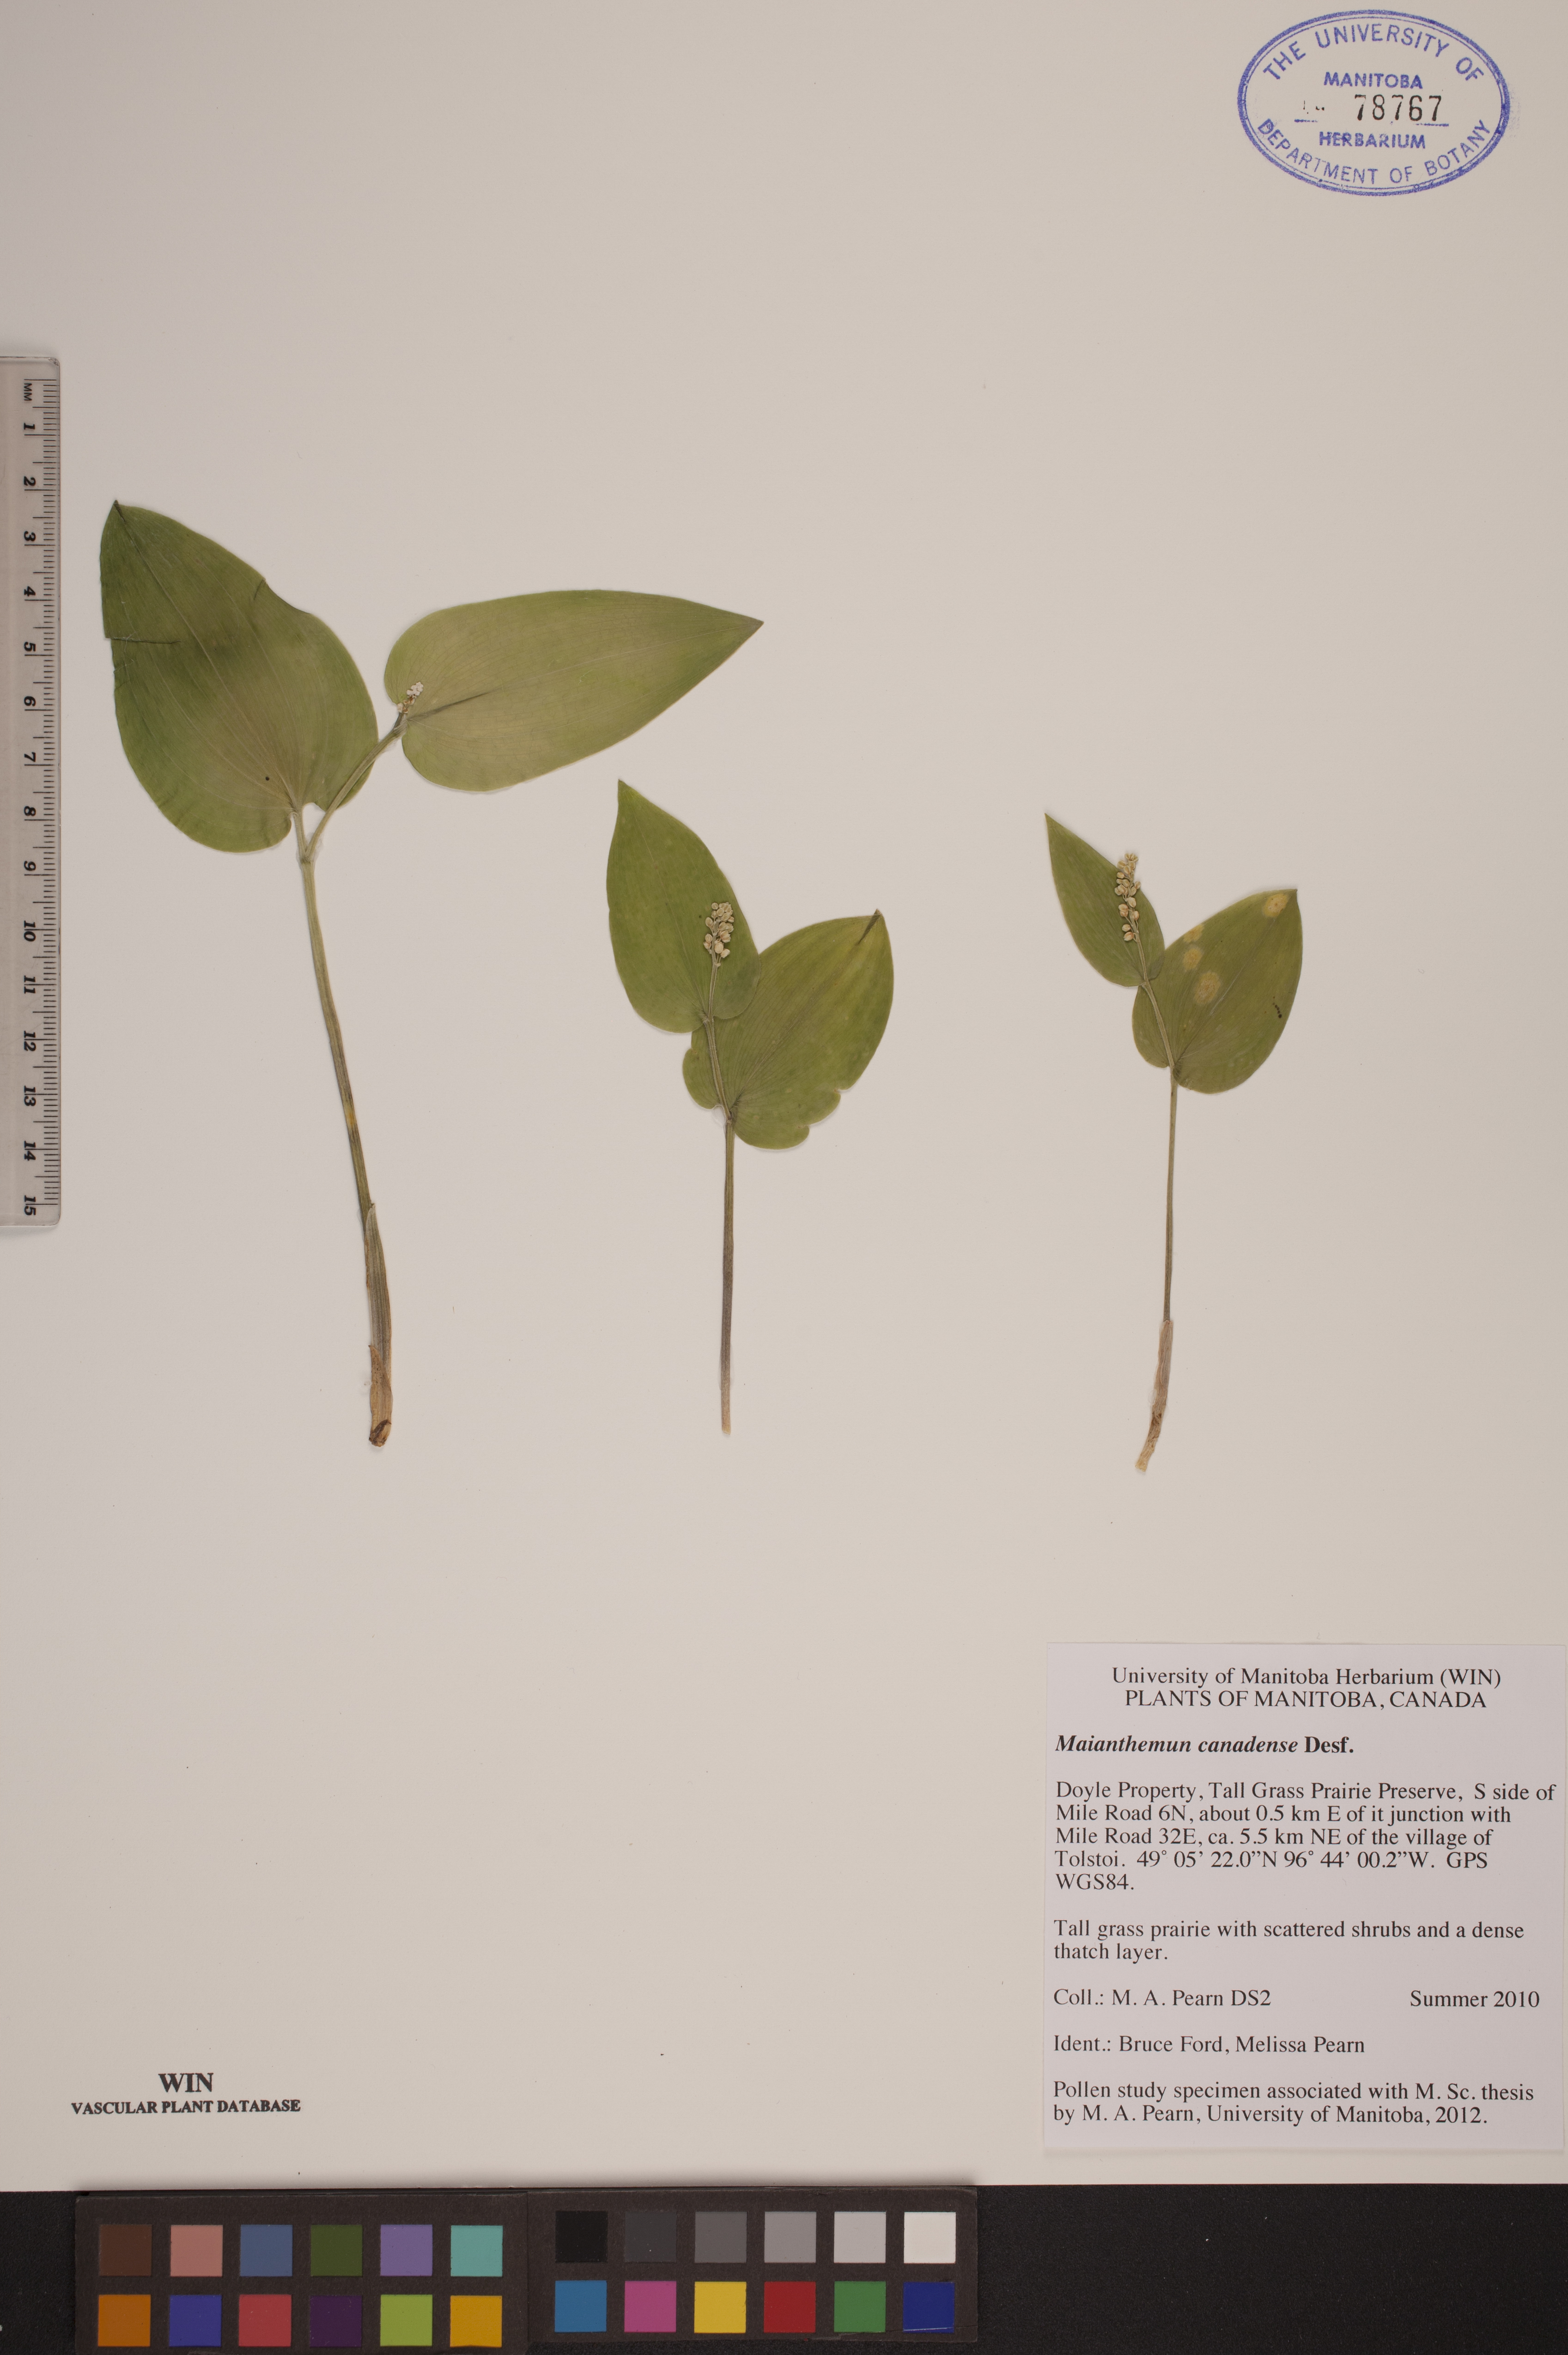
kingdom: Plantae
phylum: Tracheophyta
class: Liliopsida
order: Asparagales
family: Asparagaceae
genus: Maianthemum
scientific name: Maianthemum canadense
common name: False lily-of-the-valley
